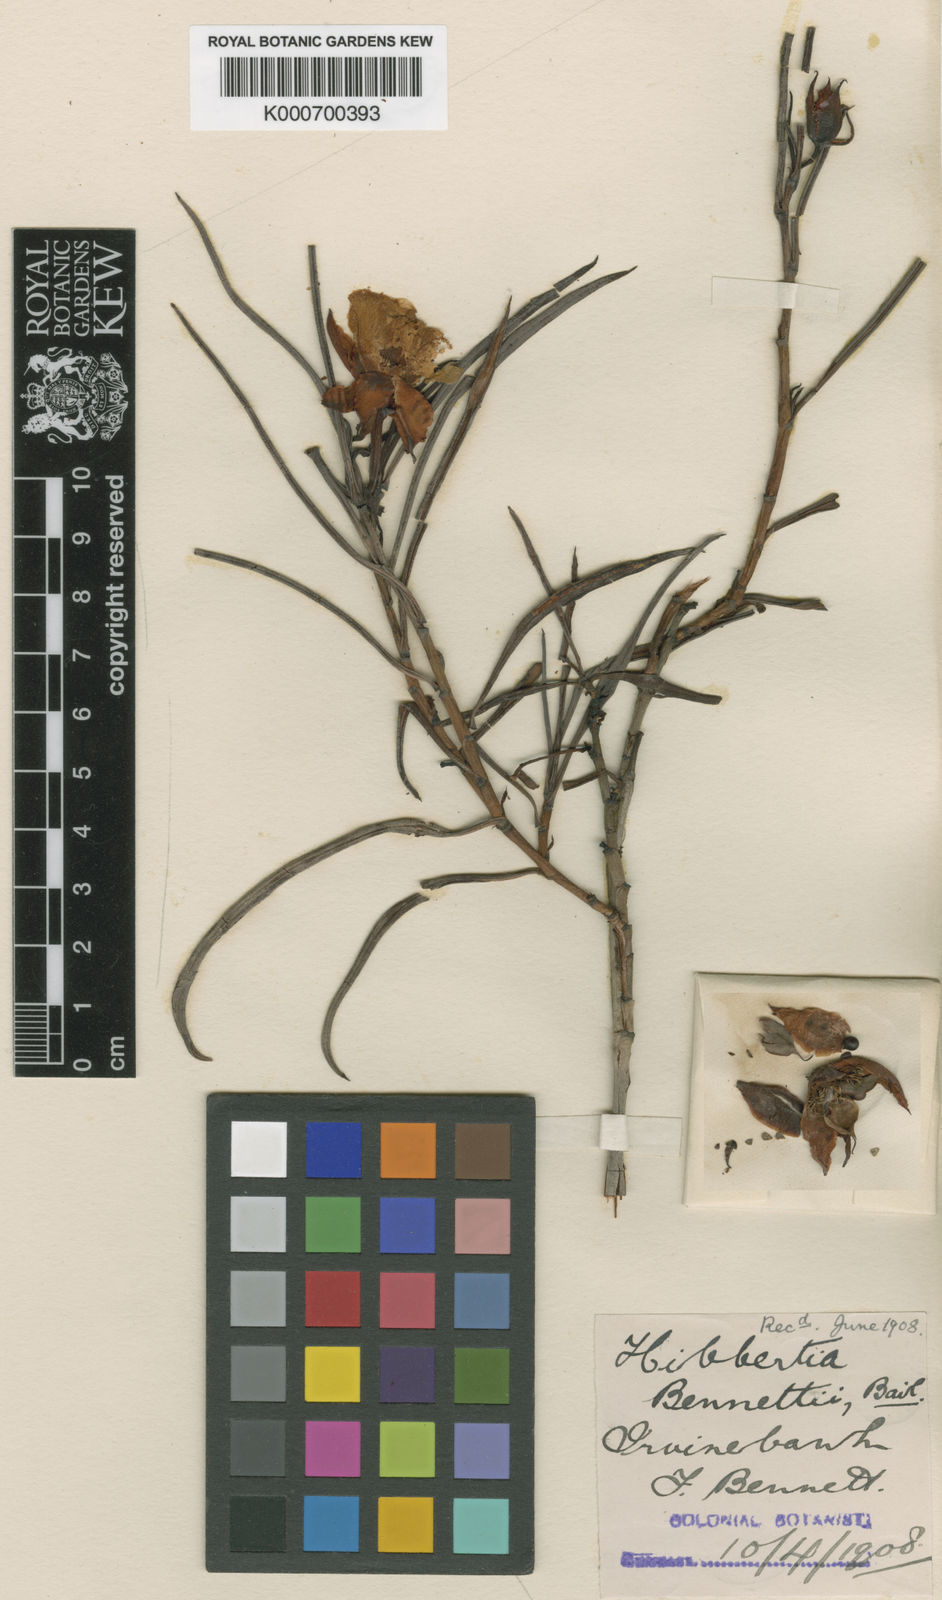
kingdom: Plantae
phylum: Tracheophyta
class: Magnoliopsida
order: Dilleniales
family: Dilleniaceae
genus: Hibbertia
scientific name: Hibbertia bennettii
